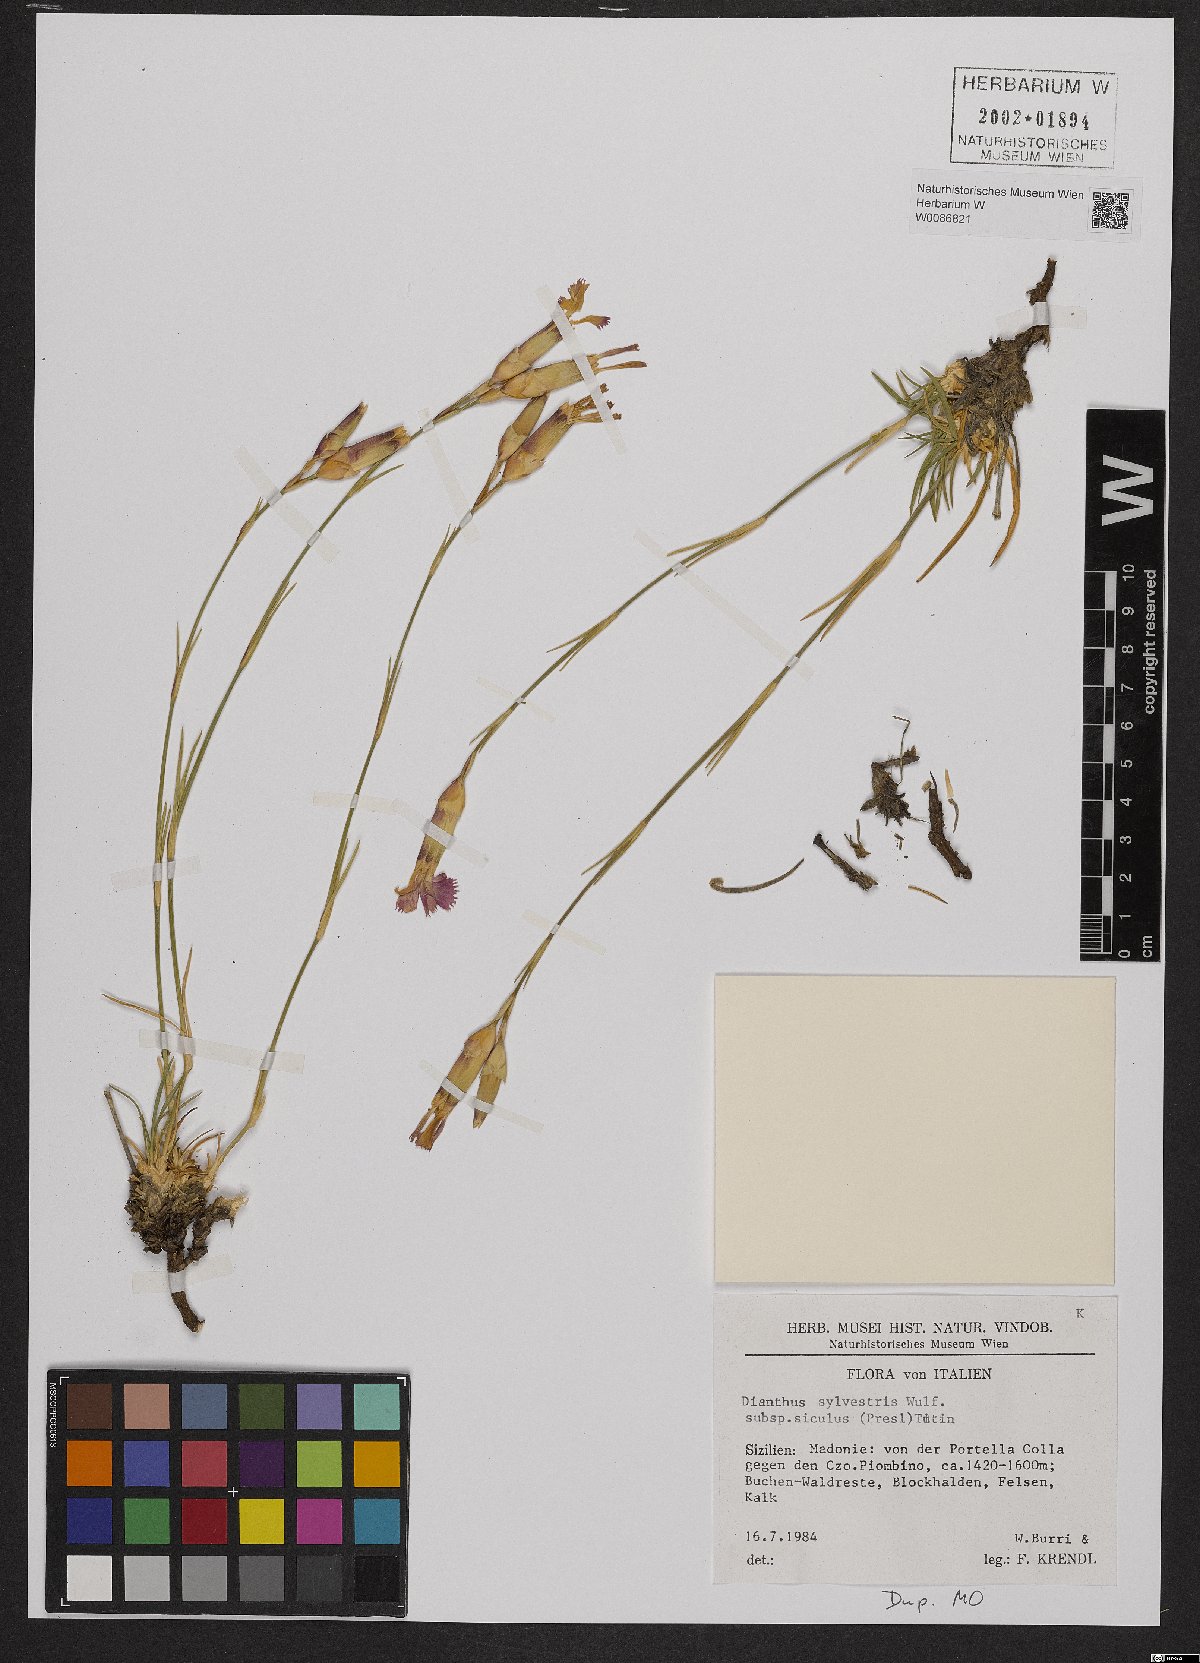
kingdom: Plantae
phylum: Tracheophyta
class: Magnoliopsida
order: Caryophyllales
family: Caryophyllaceae
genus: Dianthus
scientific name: Dianthus siculus
